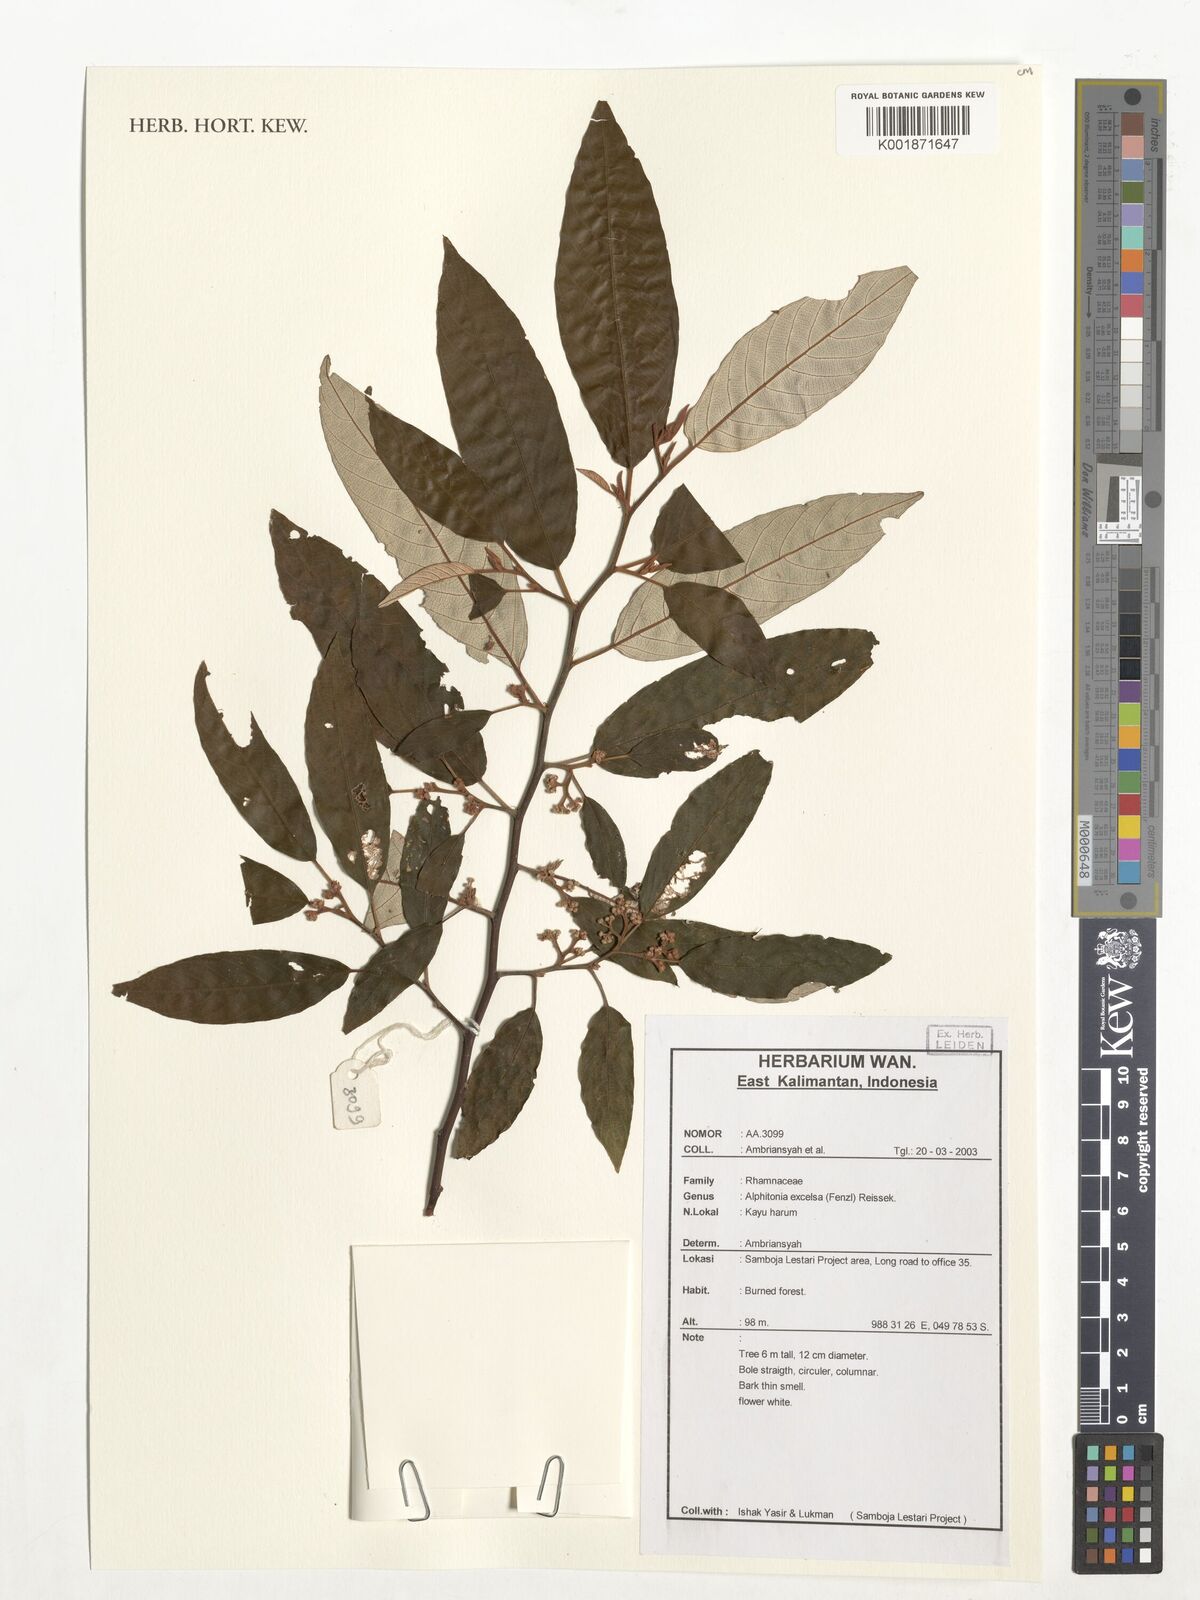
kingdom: Plantae
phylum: Tracheophyta
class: Magnoliopsida
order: Rosales
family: Rhamnaceae
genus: Alphitonia
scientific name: Alphitonia excelsa
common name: Red ash
